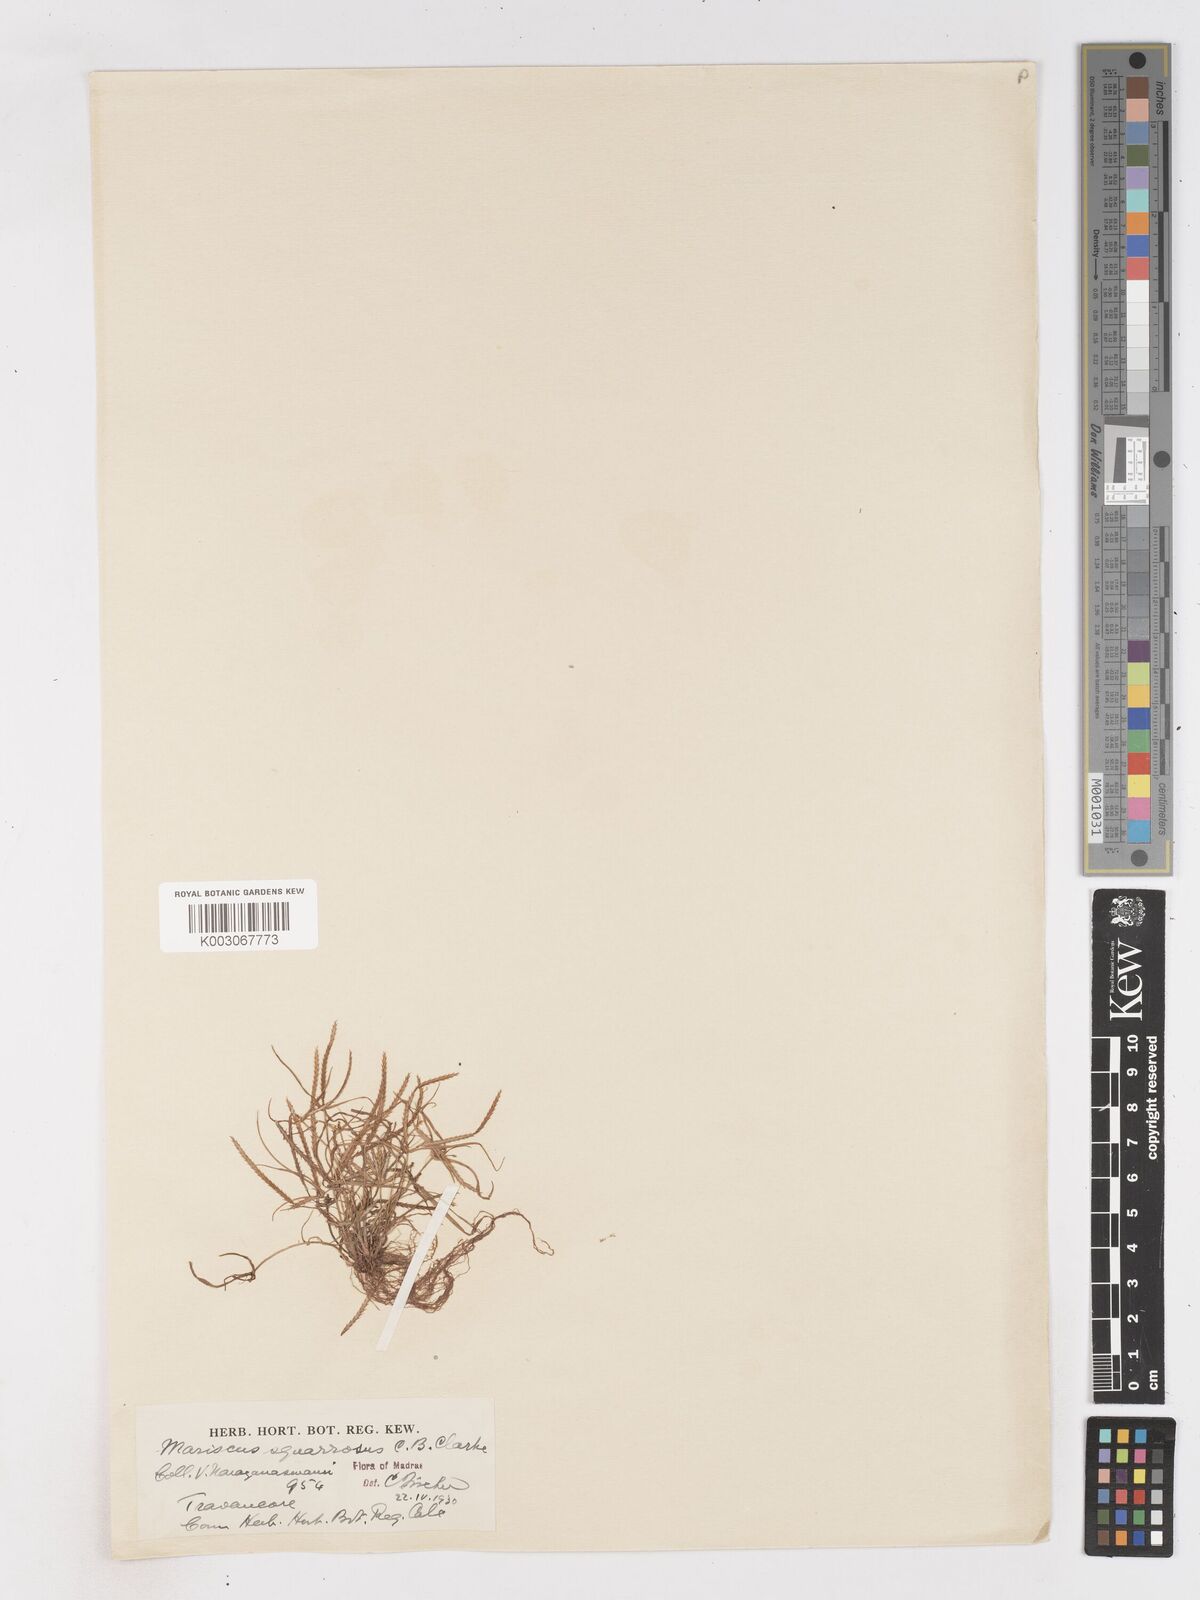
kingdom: Plantae
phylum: Tracheophyta
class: Liliopsida
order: Poales
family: Cyperaceae
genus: Cyperus
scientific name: Cyperus maderaspatanus
